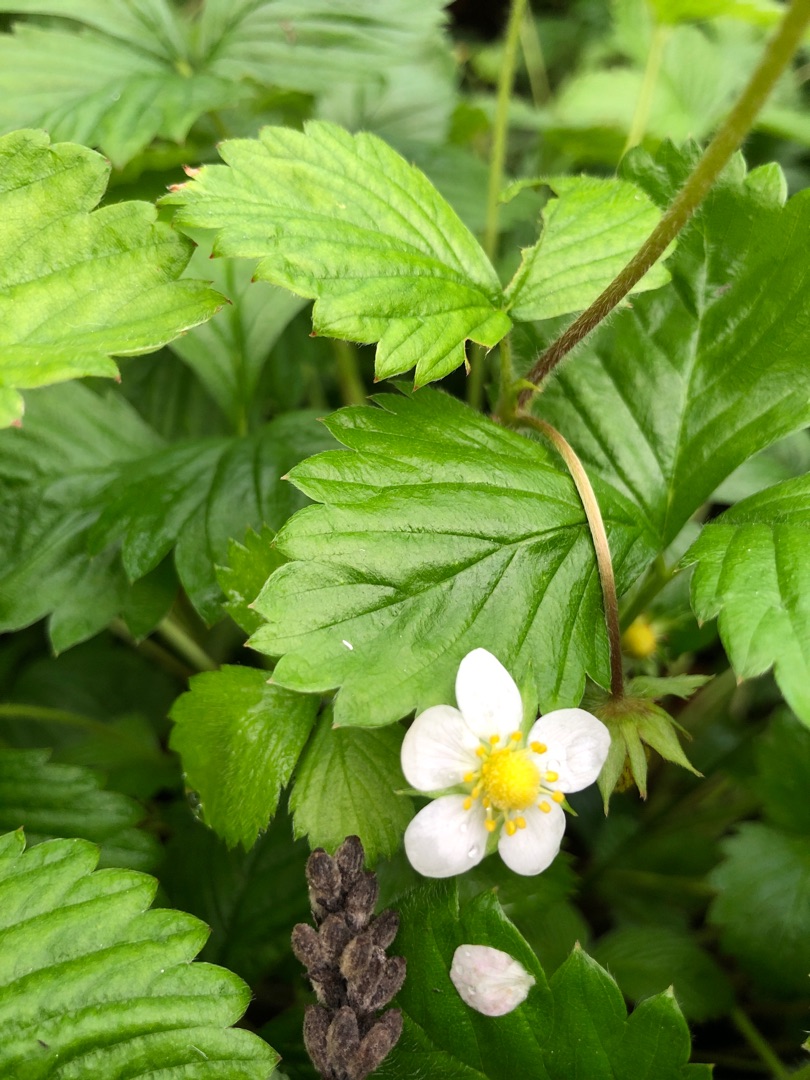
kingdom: Plantae
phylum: Tracheophyta
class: Magnoliopsida
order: Rosales
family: Rosaceae
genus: Fragaria
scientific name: Fragaria vesca
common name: Skov-jordbær
